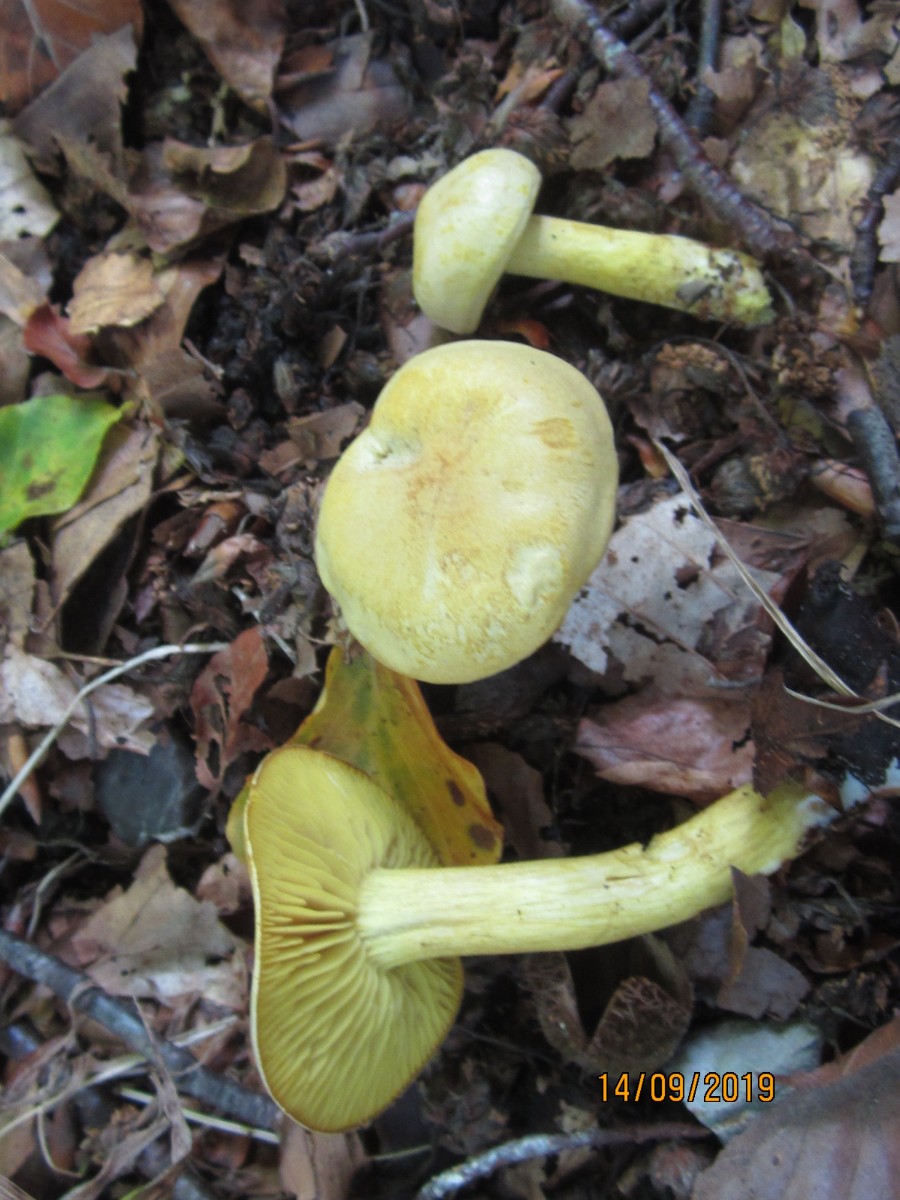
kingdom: Fungi
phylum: Basidiomycota
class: Agaricomycetes
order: Agaricales
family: Tricholomataceae
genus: Tricholoma
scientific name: Tricholoma sulphureum
